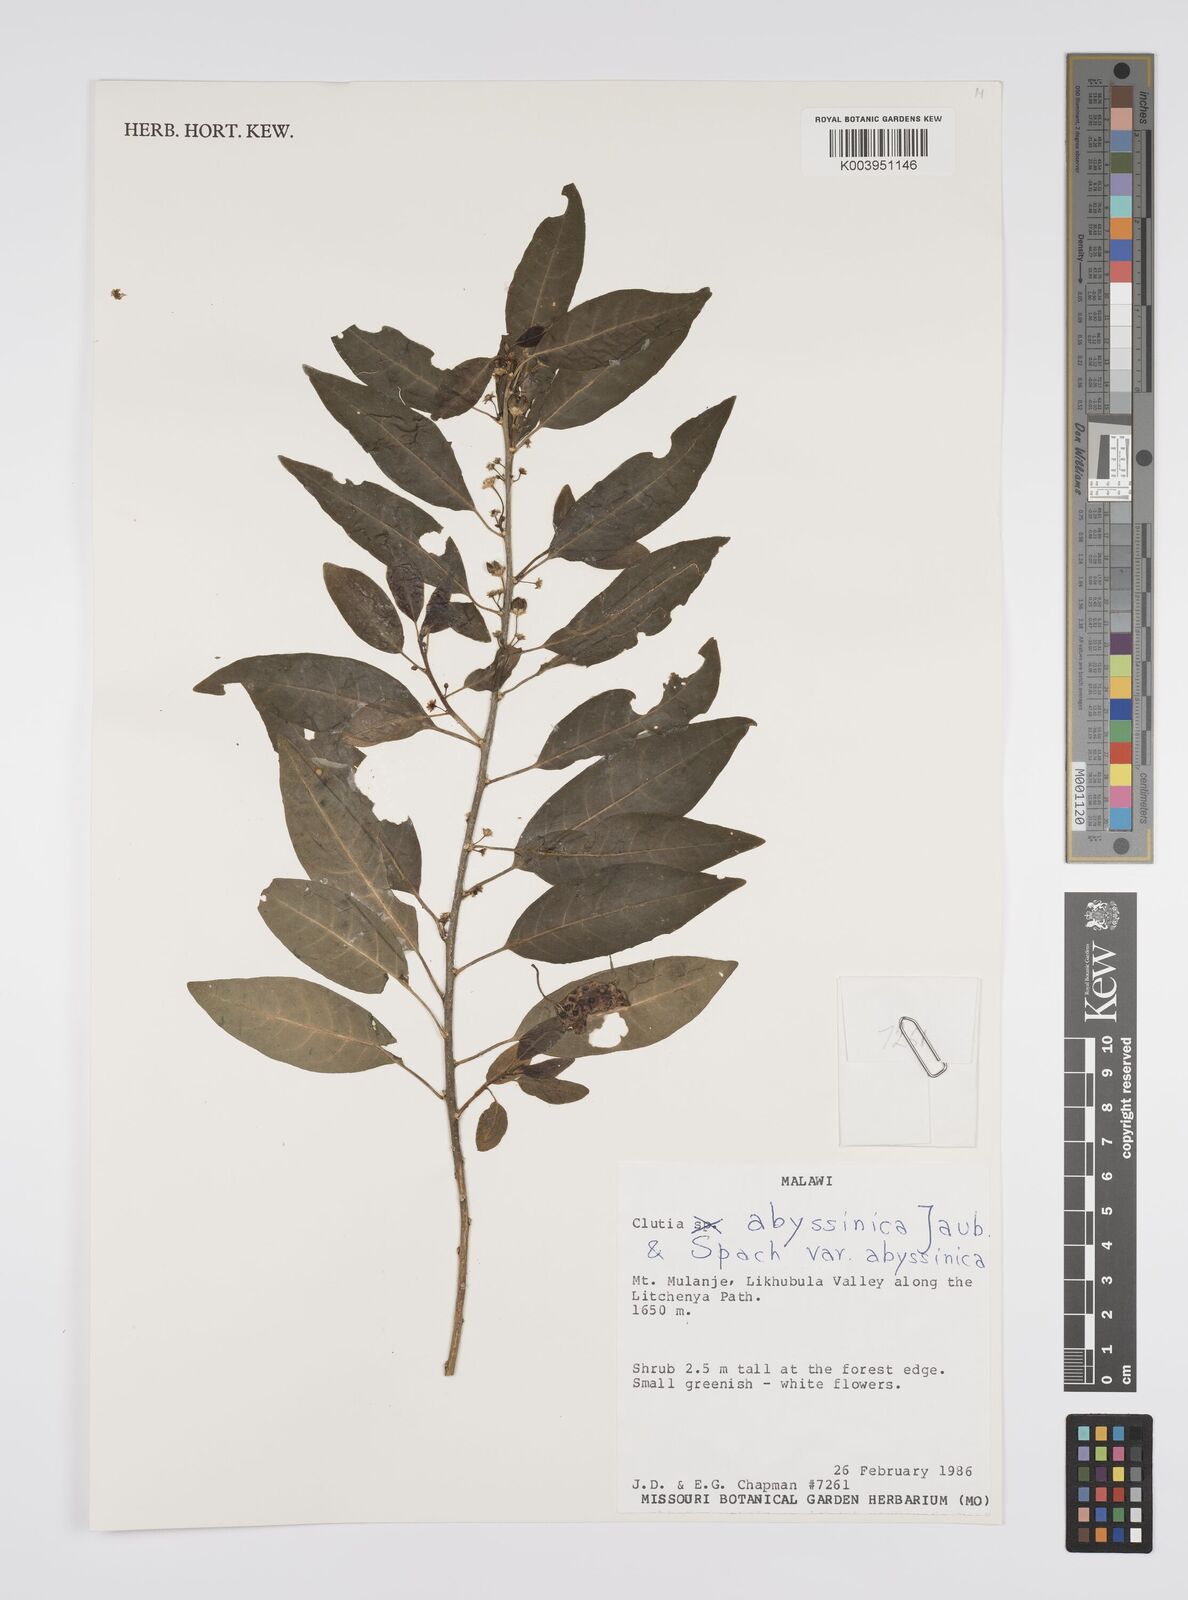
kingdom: Plantae
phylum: Tracheophyta
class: Magnoliopsida
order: Malpighiales
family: Peraceae
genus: Clutia
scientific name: Clutia abyssinica
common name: Large lightning bush
